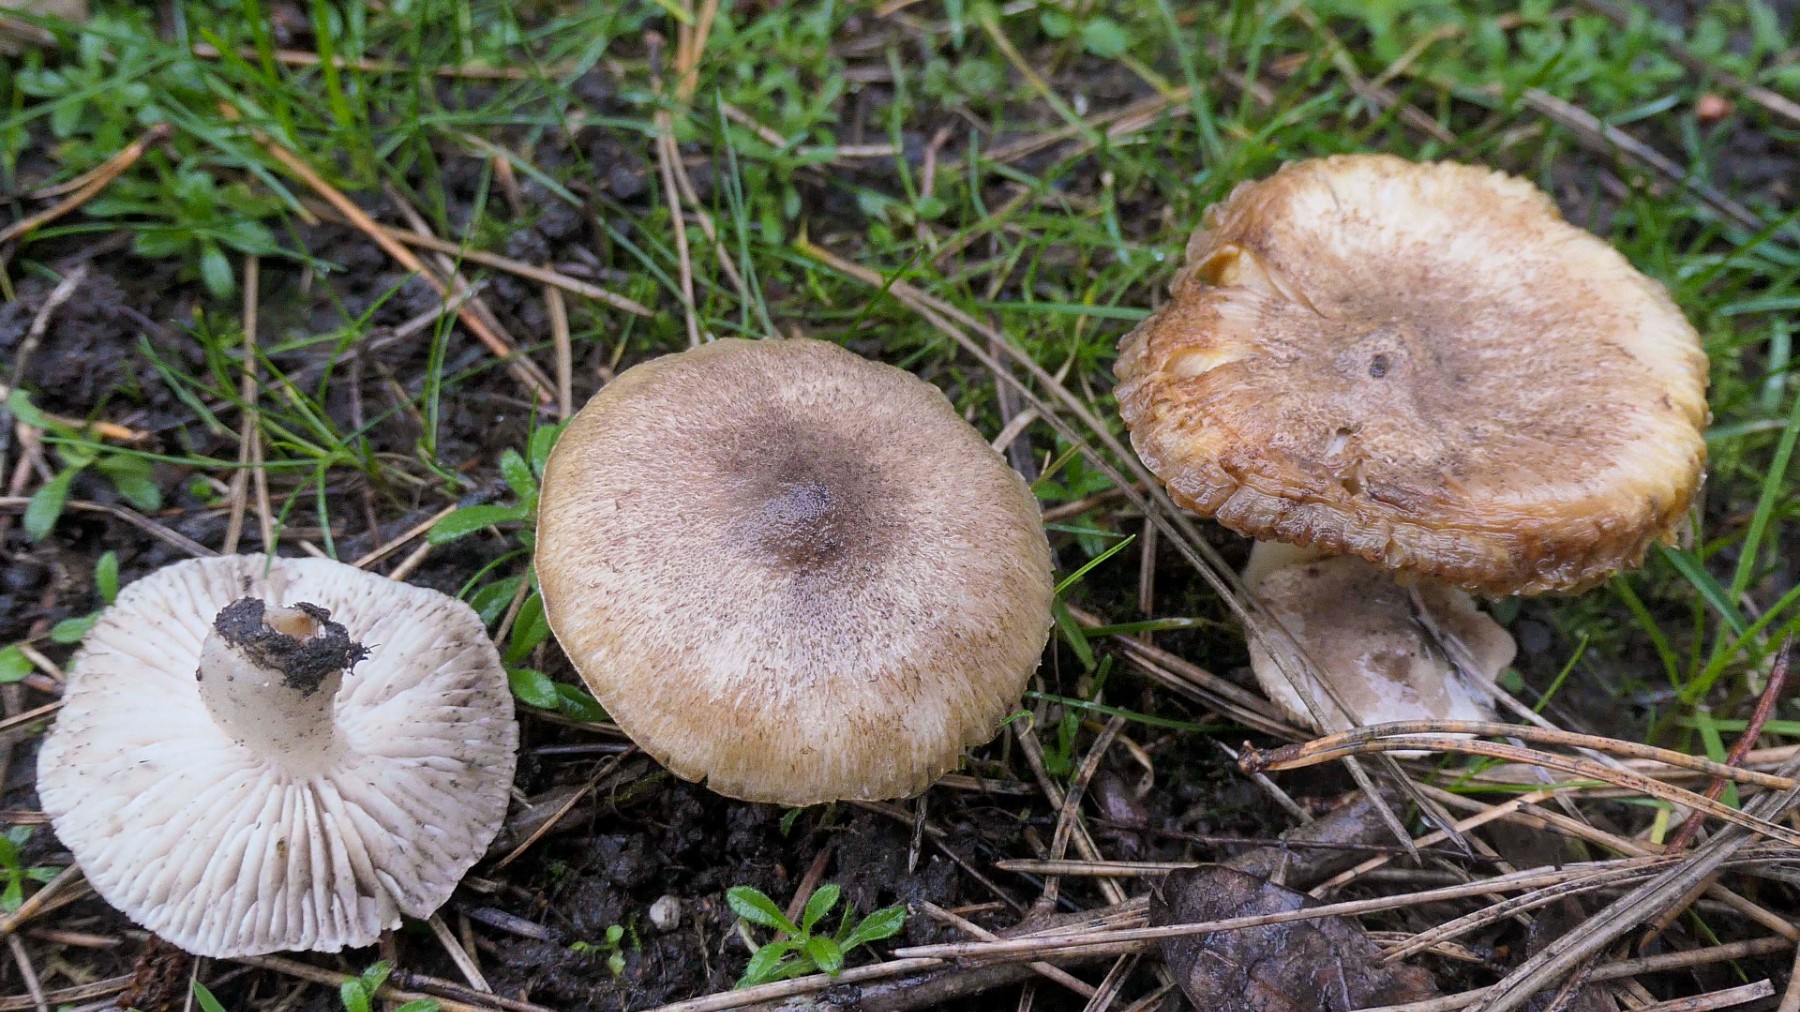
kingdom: Fungi
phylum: Basidiomycota
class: Agaricomycetes
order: Agaricales
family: Tricholomataceae
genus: Tricholoma
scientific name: Tricholoma terreum
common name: jordfarvet ridderhat
